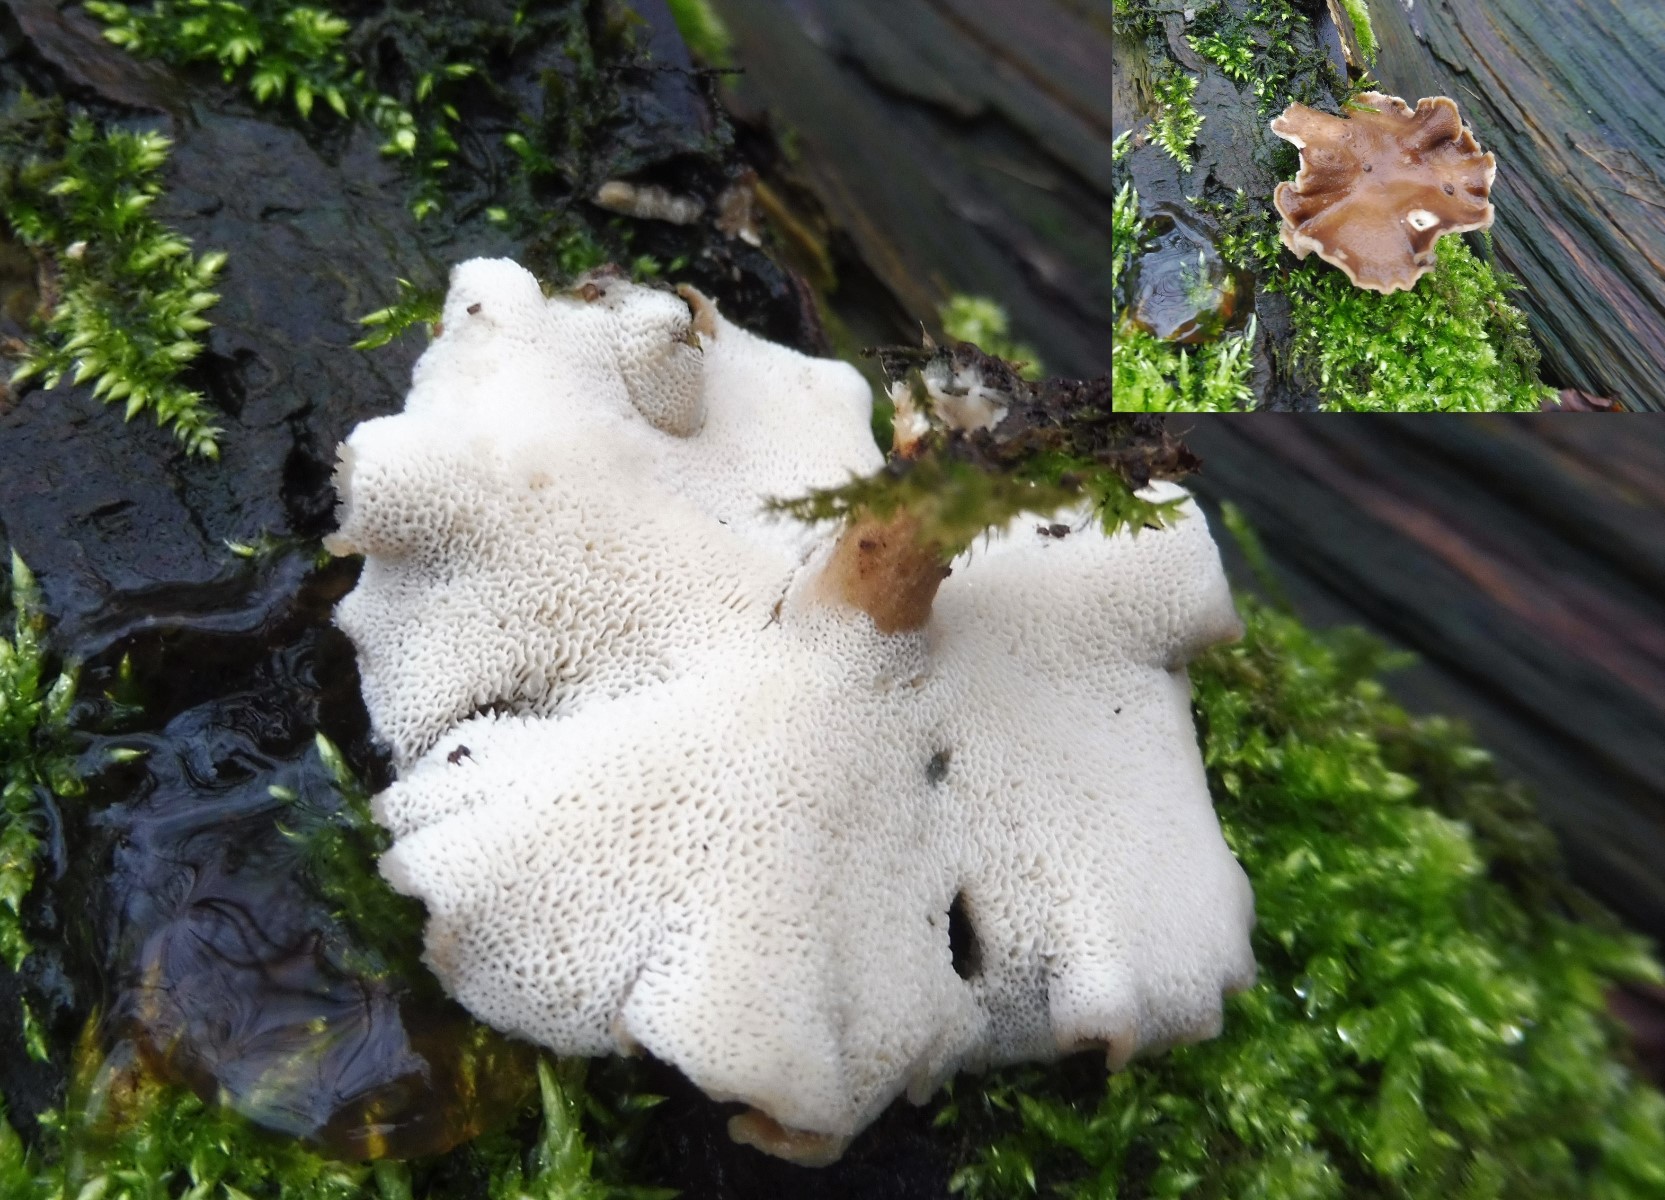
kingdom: Fungi
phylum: Basidiomycota
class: Agaricomycetes
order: Polyporales
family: Polyporaceae
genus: Lentinus
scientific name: Lentinus brumalis
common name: vinter-stilkporesvamp
